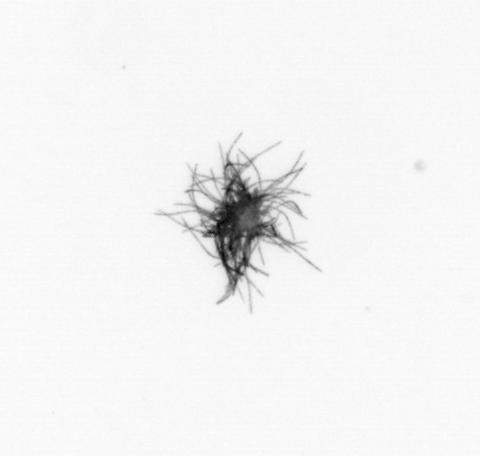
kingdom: Bacteria
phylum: Cyanobacteria
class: Cyanobacteriia
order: Cyanobacteriales
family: Microcoleaceae
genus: Trichodesmium
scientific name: Trichodesmium
